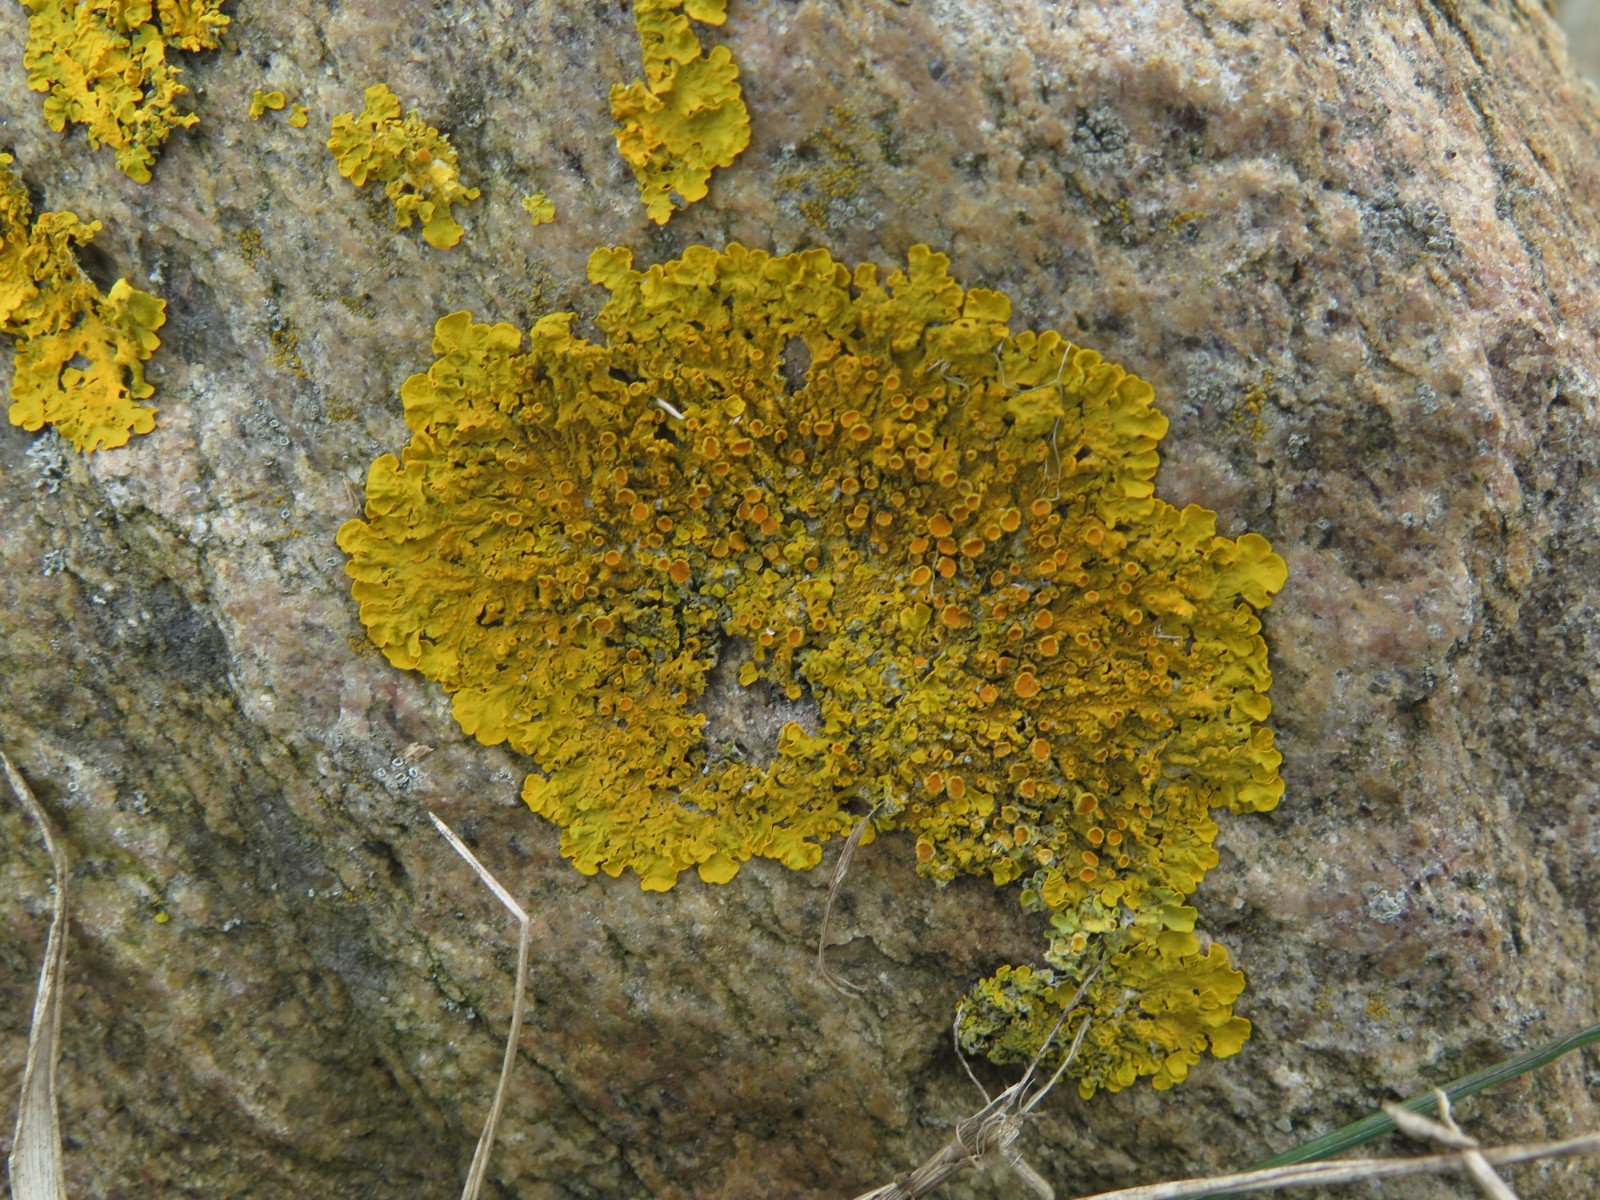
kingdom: Fungi
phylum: Ascomycota
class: Lecanoromycetes
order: Teloschistales
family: Teloschistaceae
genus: Xanthoria
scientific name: Xanthoria parietina
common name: almindelig væggelav
